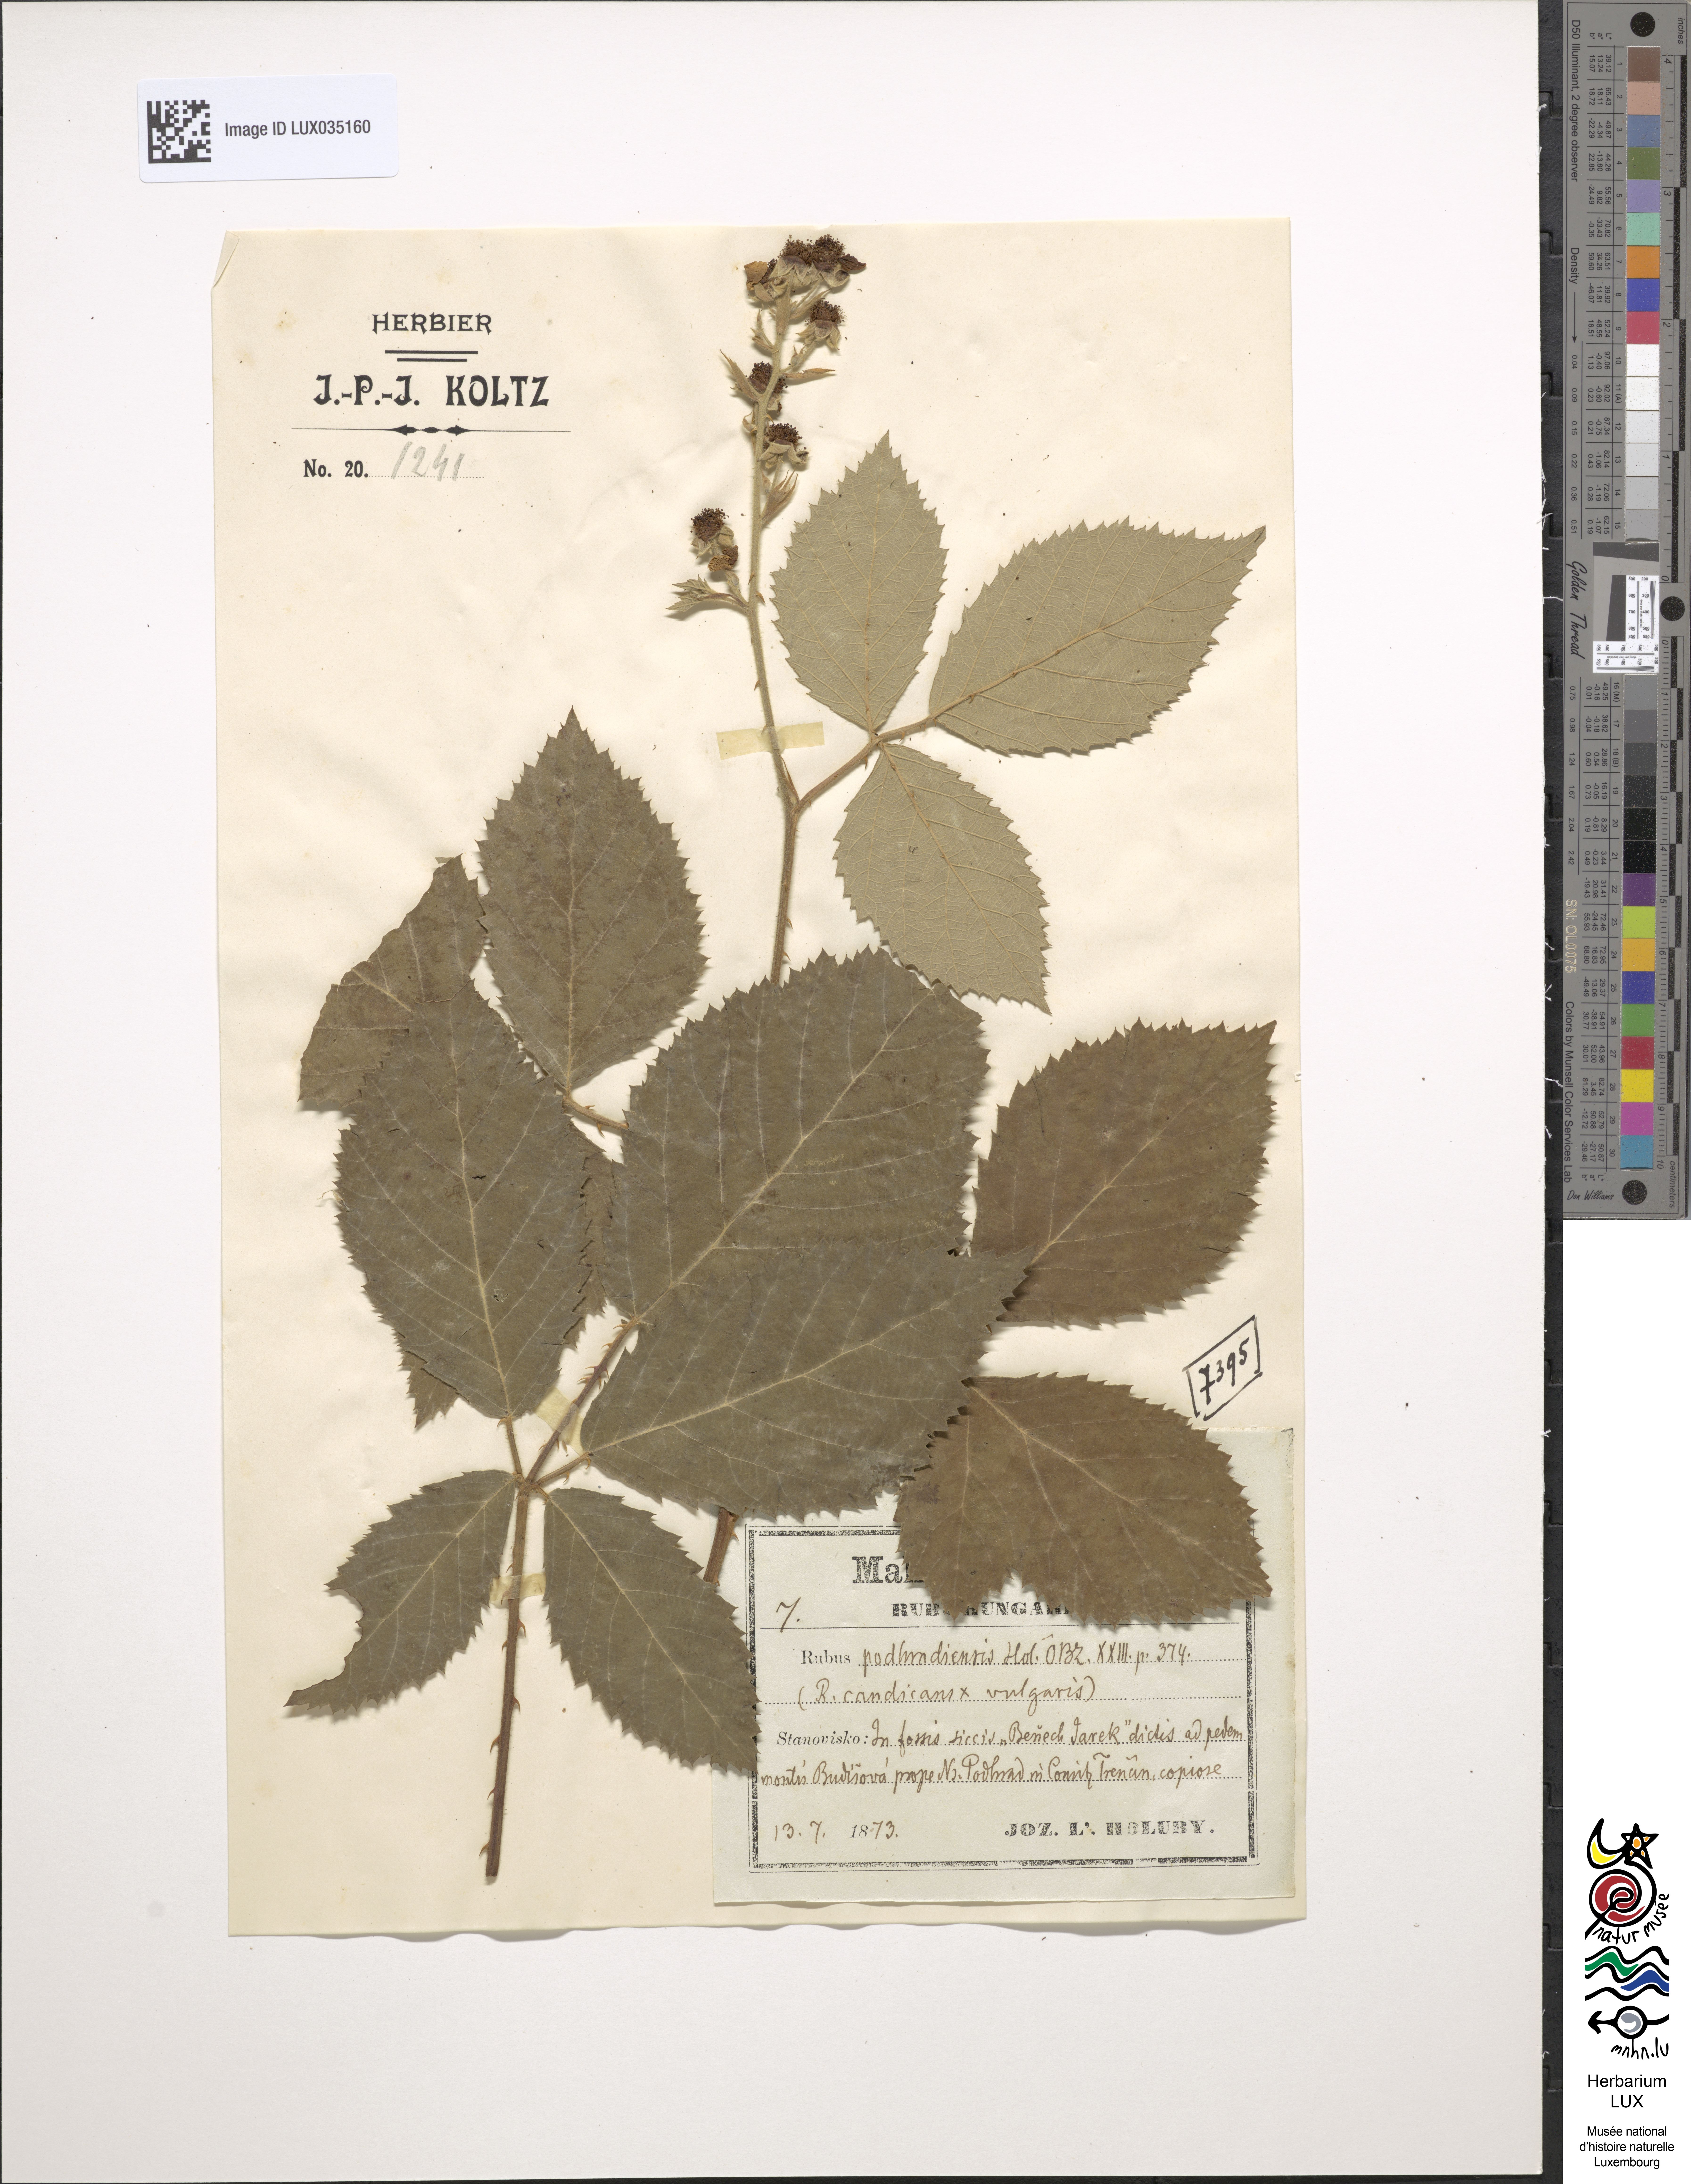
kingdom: Plantae
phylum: Tracheophyta
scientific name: Tracheophyta
